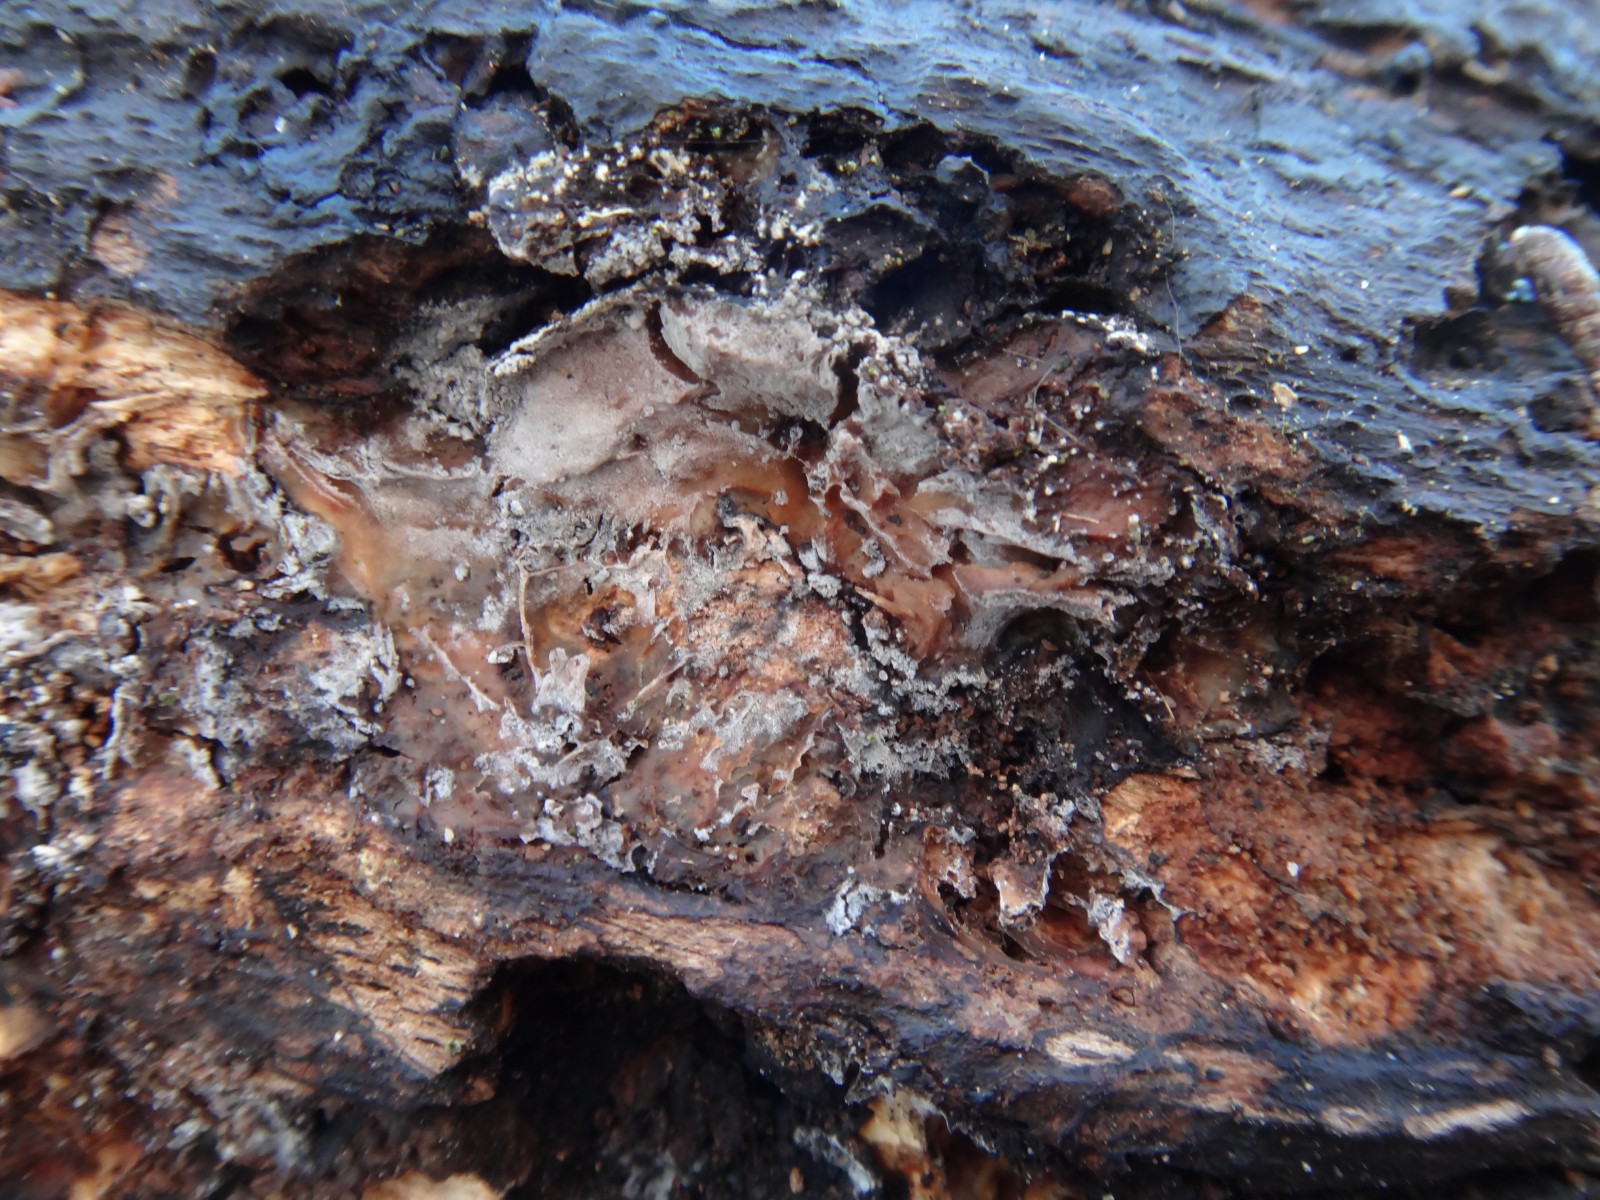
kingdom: Fungi
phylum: Basidiomycota
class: Agaricomycetes
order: Cantharellales
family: Hydnaceae
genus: Sistotrema
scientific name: Sistotrema brinkmannii
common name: bønnesporet kroneskorpe
